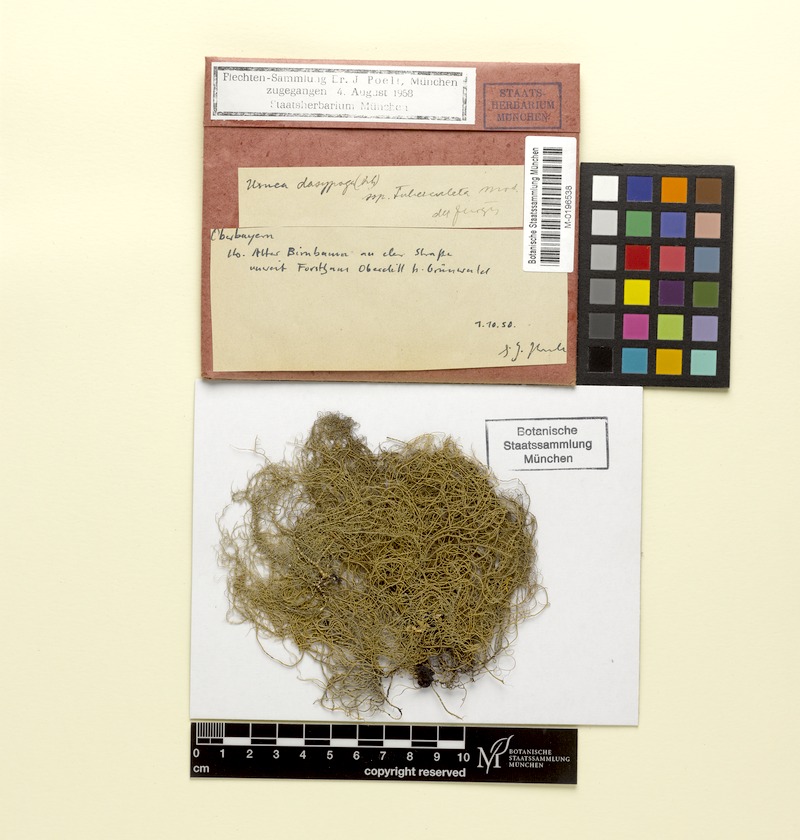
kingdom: Fungi
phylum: Ascomycota
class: Lecanoromycetes
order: Lecanorales
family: Parmeliaceae
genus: Usnea
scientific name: Usnea dasopoga
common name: Fishbone beard lichen
